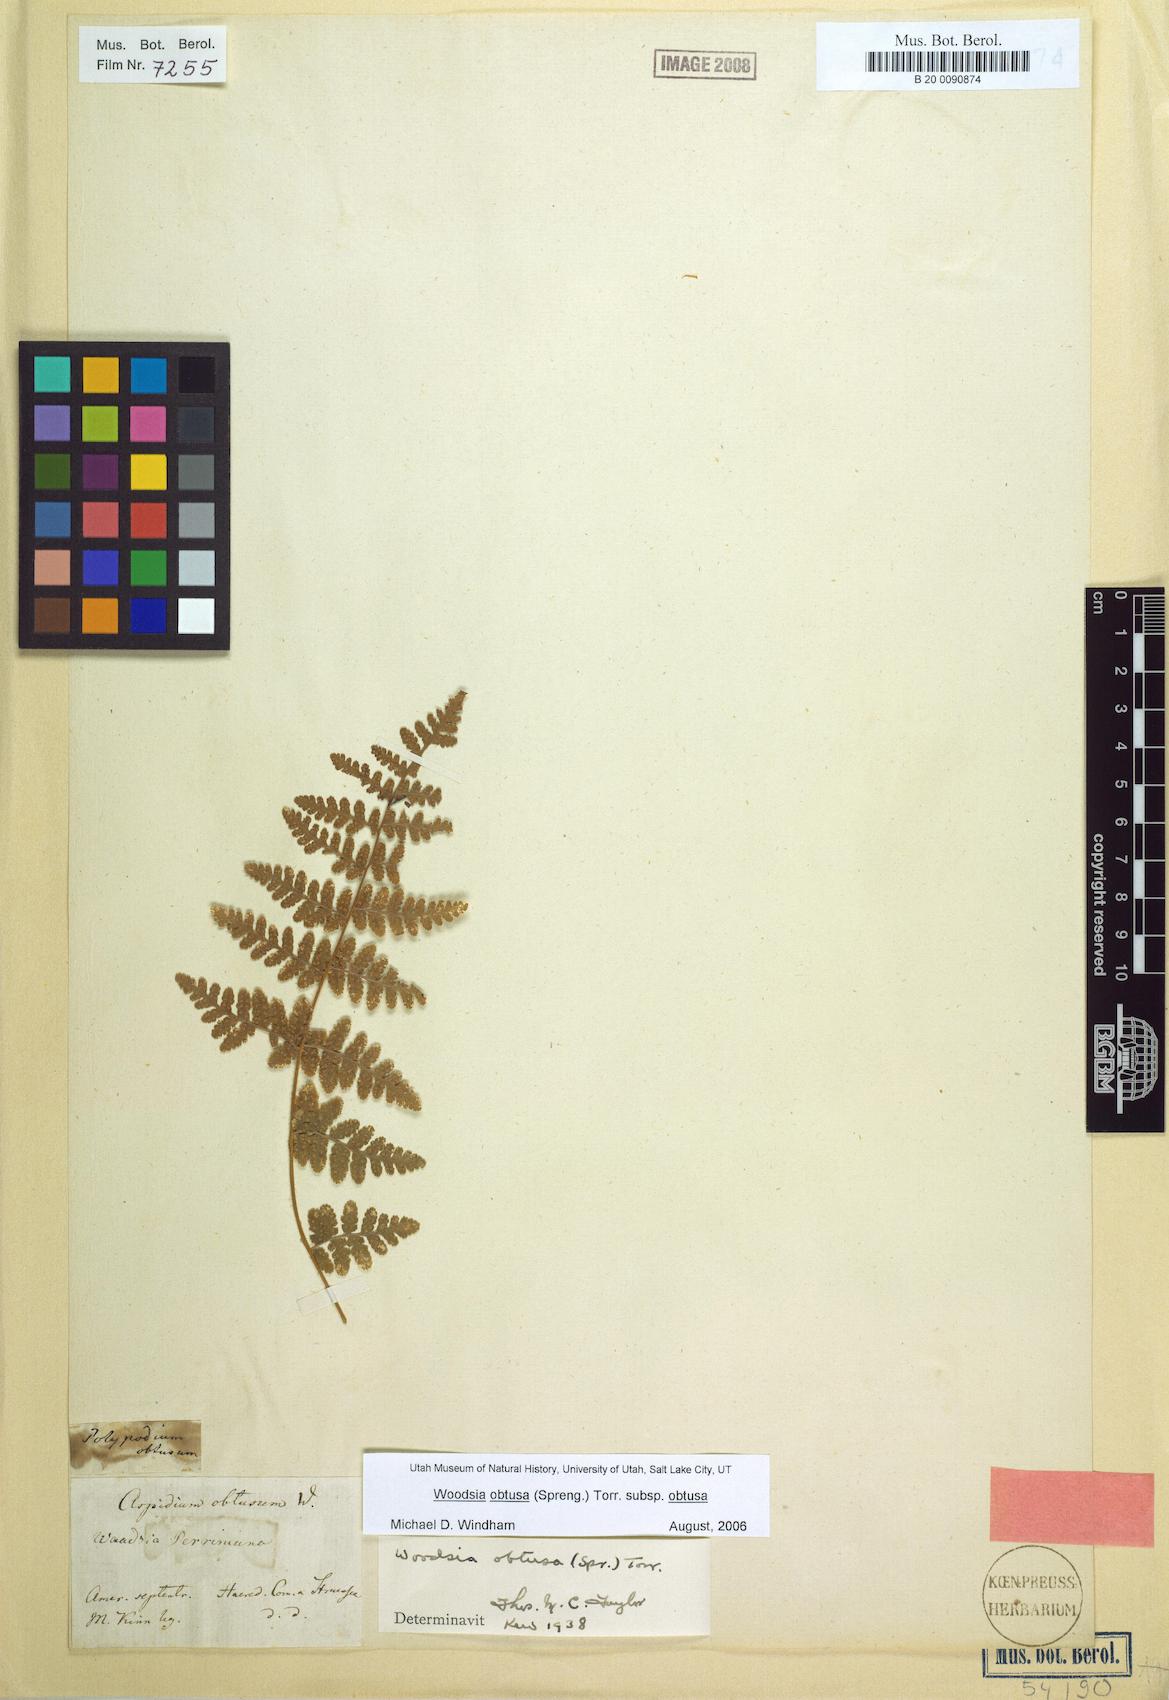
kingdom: Plantae
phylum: Tracheophyta
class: Polypodiopsida
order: Polypodiales
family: Woodsiaceae
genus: Physematium
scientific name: Physematium obtusum
